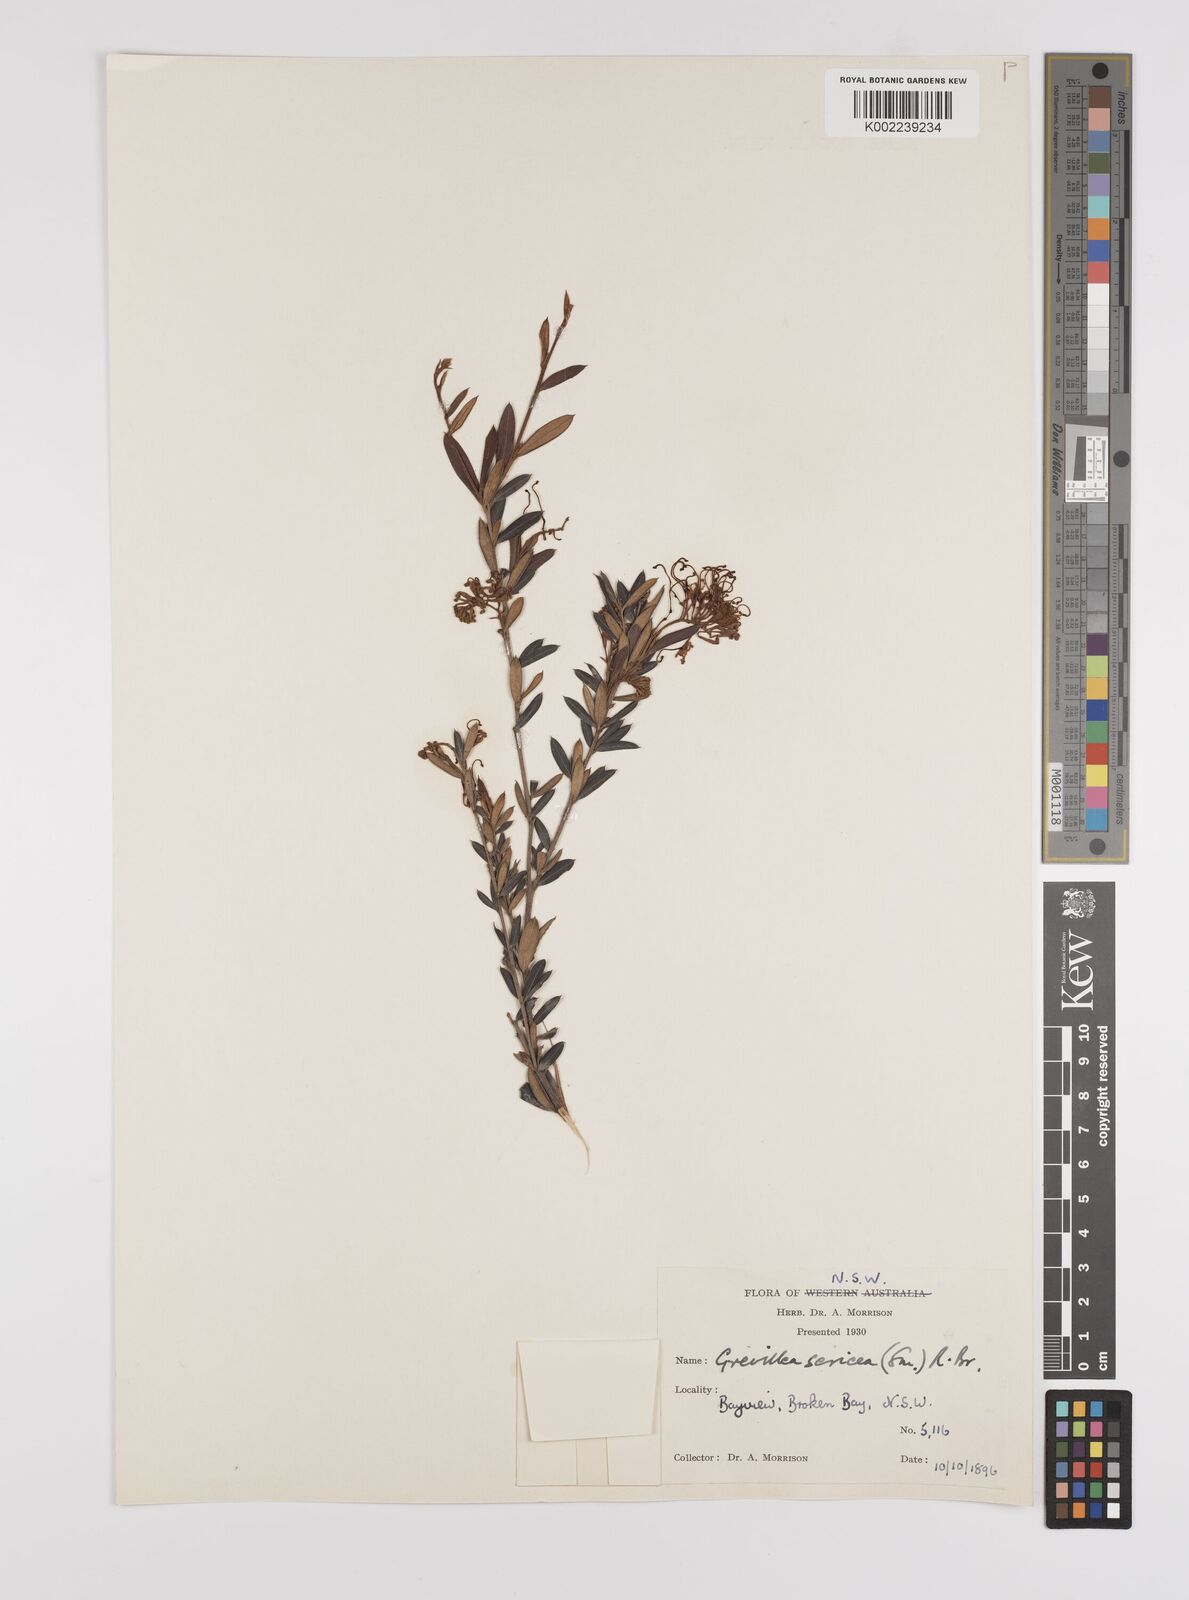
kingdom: Plantae
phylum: Tracheophyta
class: Magnoliopsida
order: Proteales
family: Proteaceae
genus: Grevillea
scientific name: Grevillea sericea
